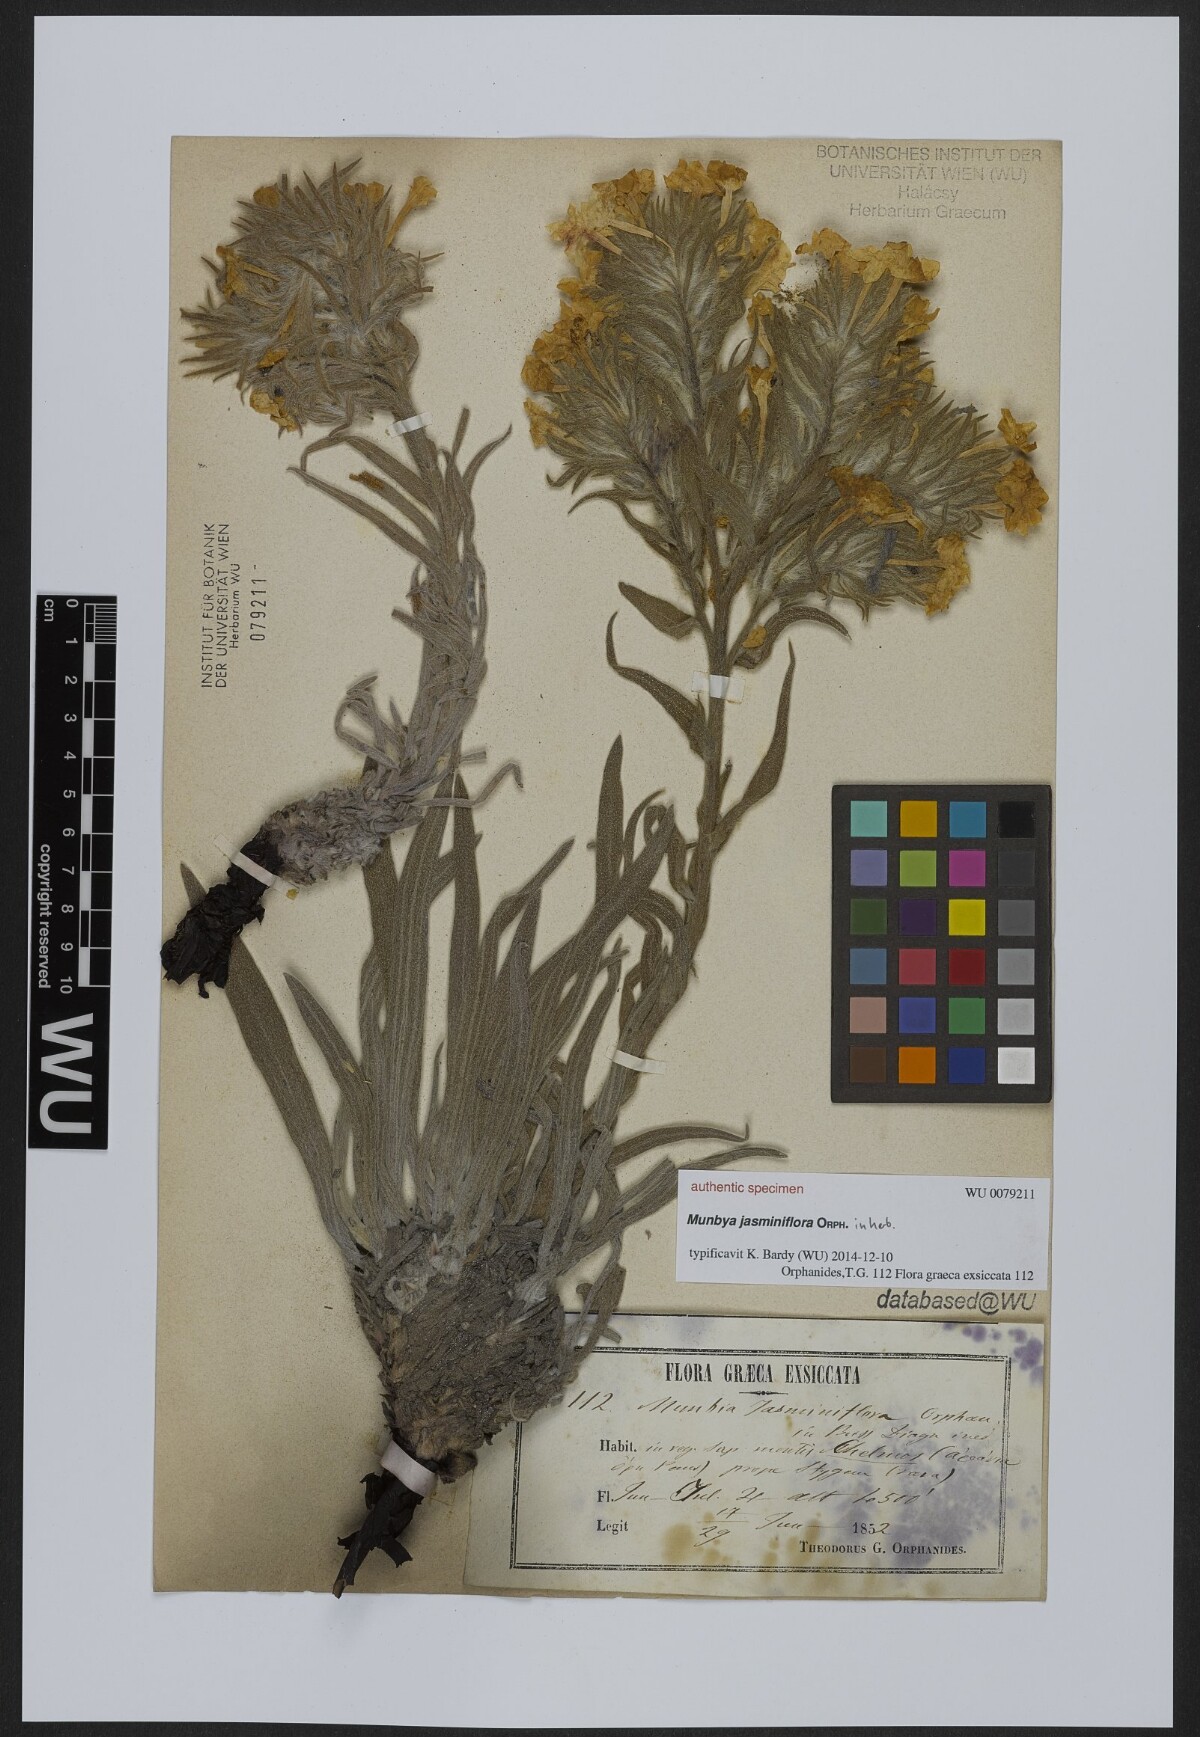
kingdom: Plantae
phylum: Tracheophyta
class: Magnoliopsida
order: Boraginales
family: Boraginaceae
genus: Arnebia
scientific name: Arnebia
